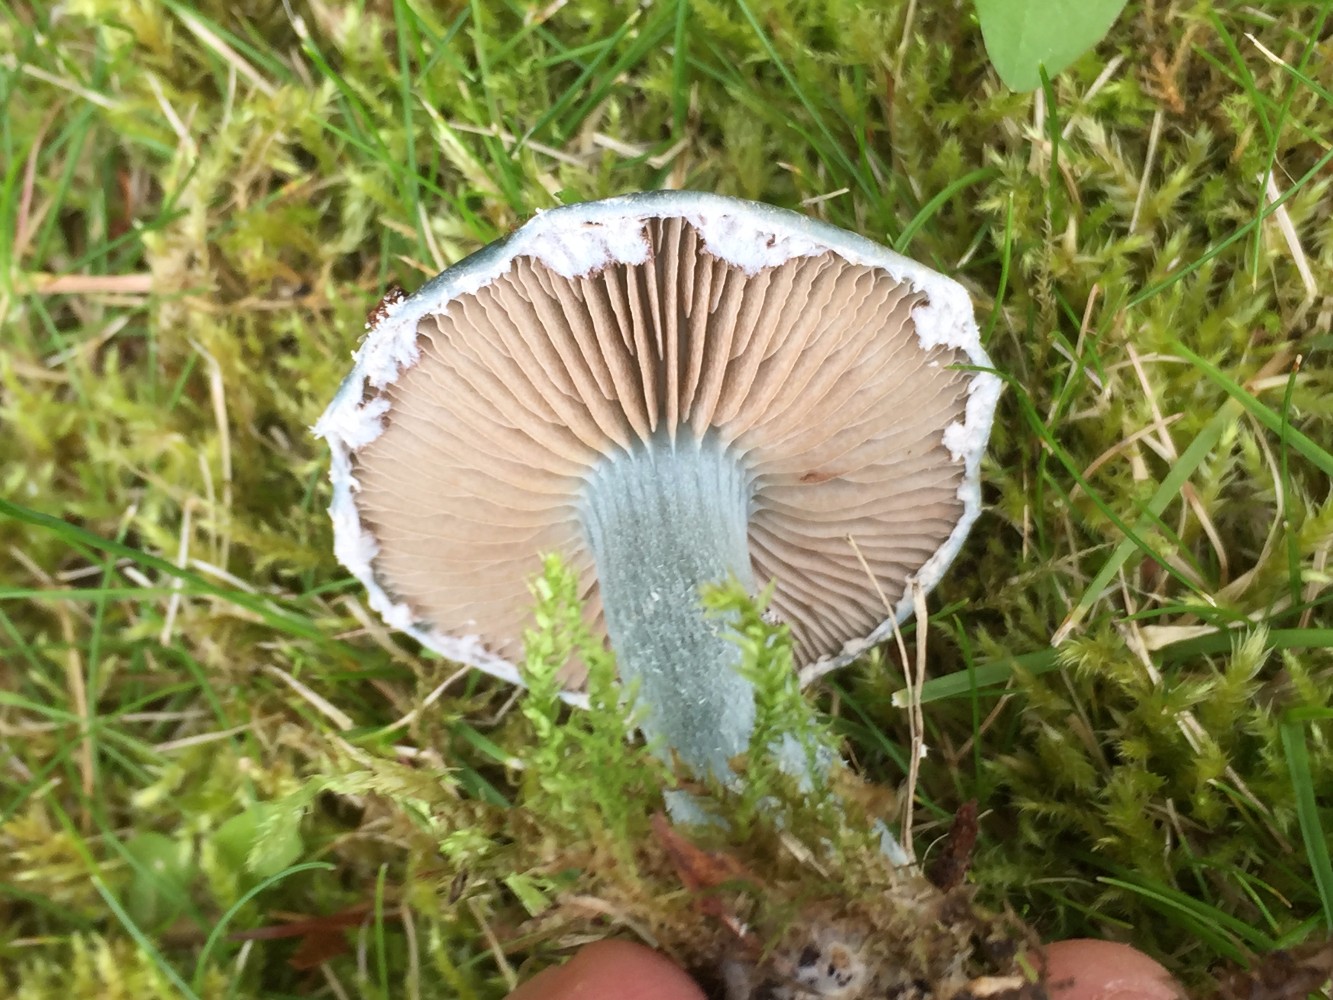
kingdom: Fungi
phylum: Basidiomycota
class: Agaricomycetes
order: Agaricales
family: Strophariaceae
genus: Stropharia
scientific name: Stropharia cyanea
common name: blågrøn bredblad
